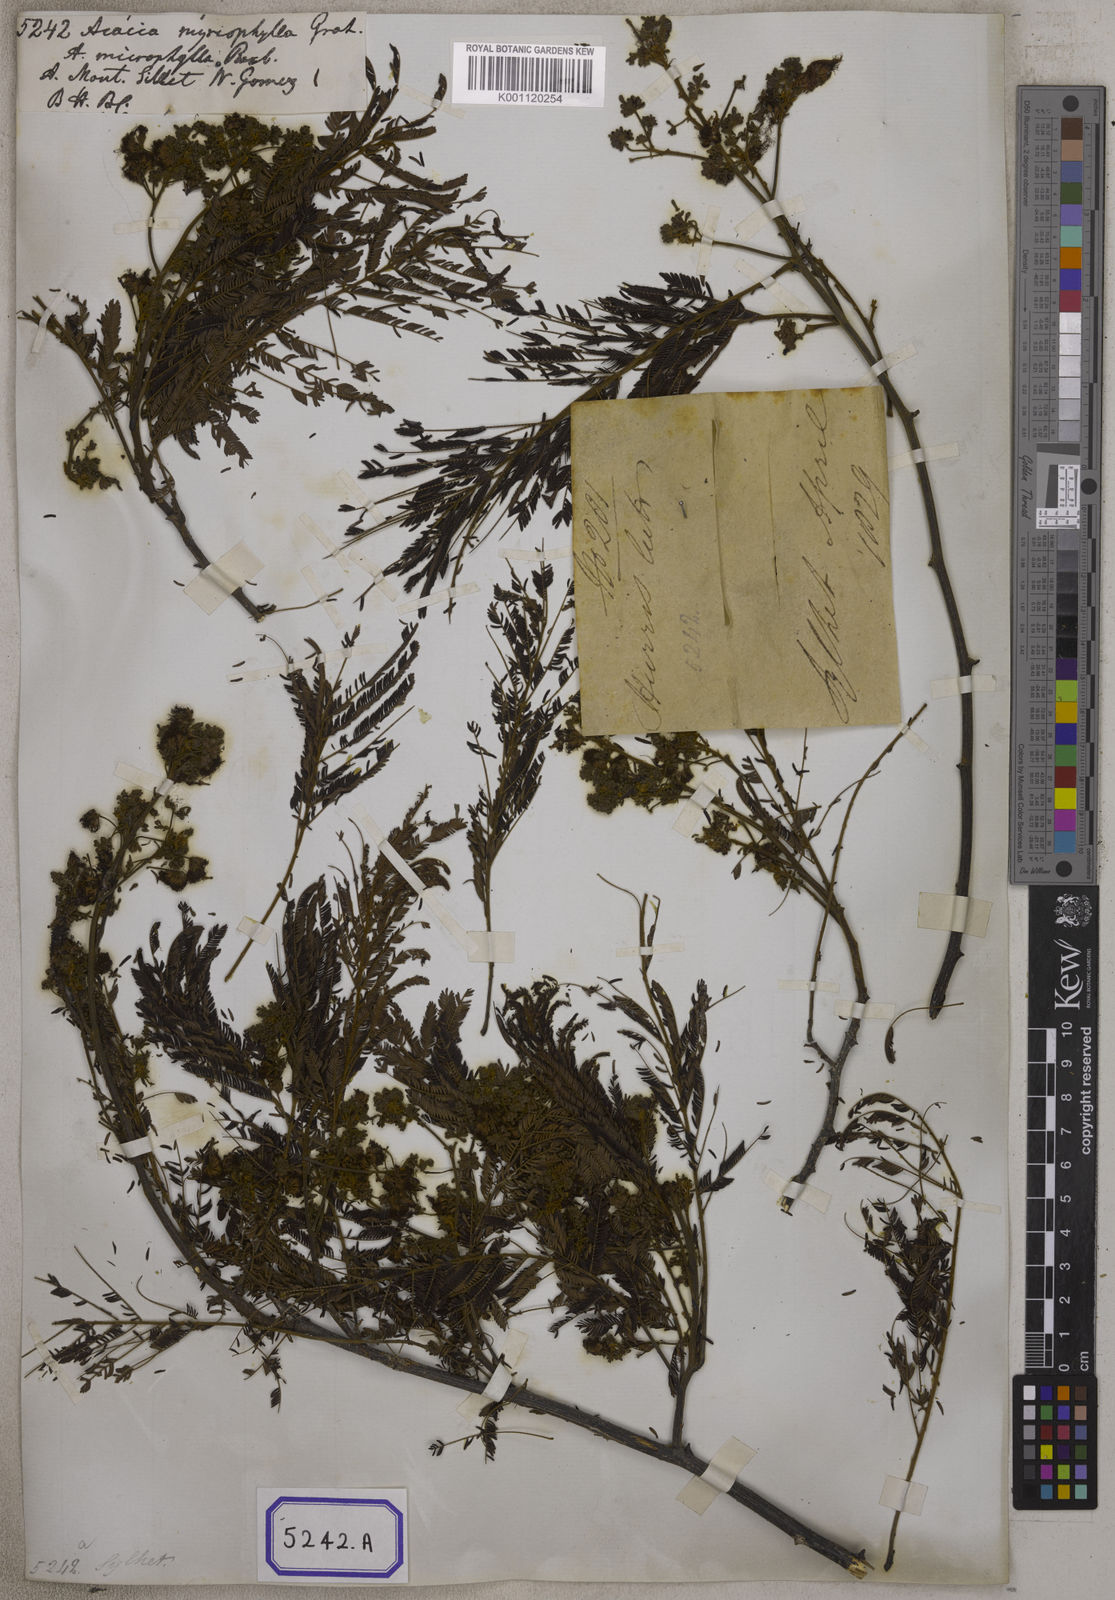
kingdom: Plantae
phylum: Tracheophyta
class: Magnoliopsida
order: Fabales
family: Fabaceae
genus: Acacia
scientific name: Acacia
